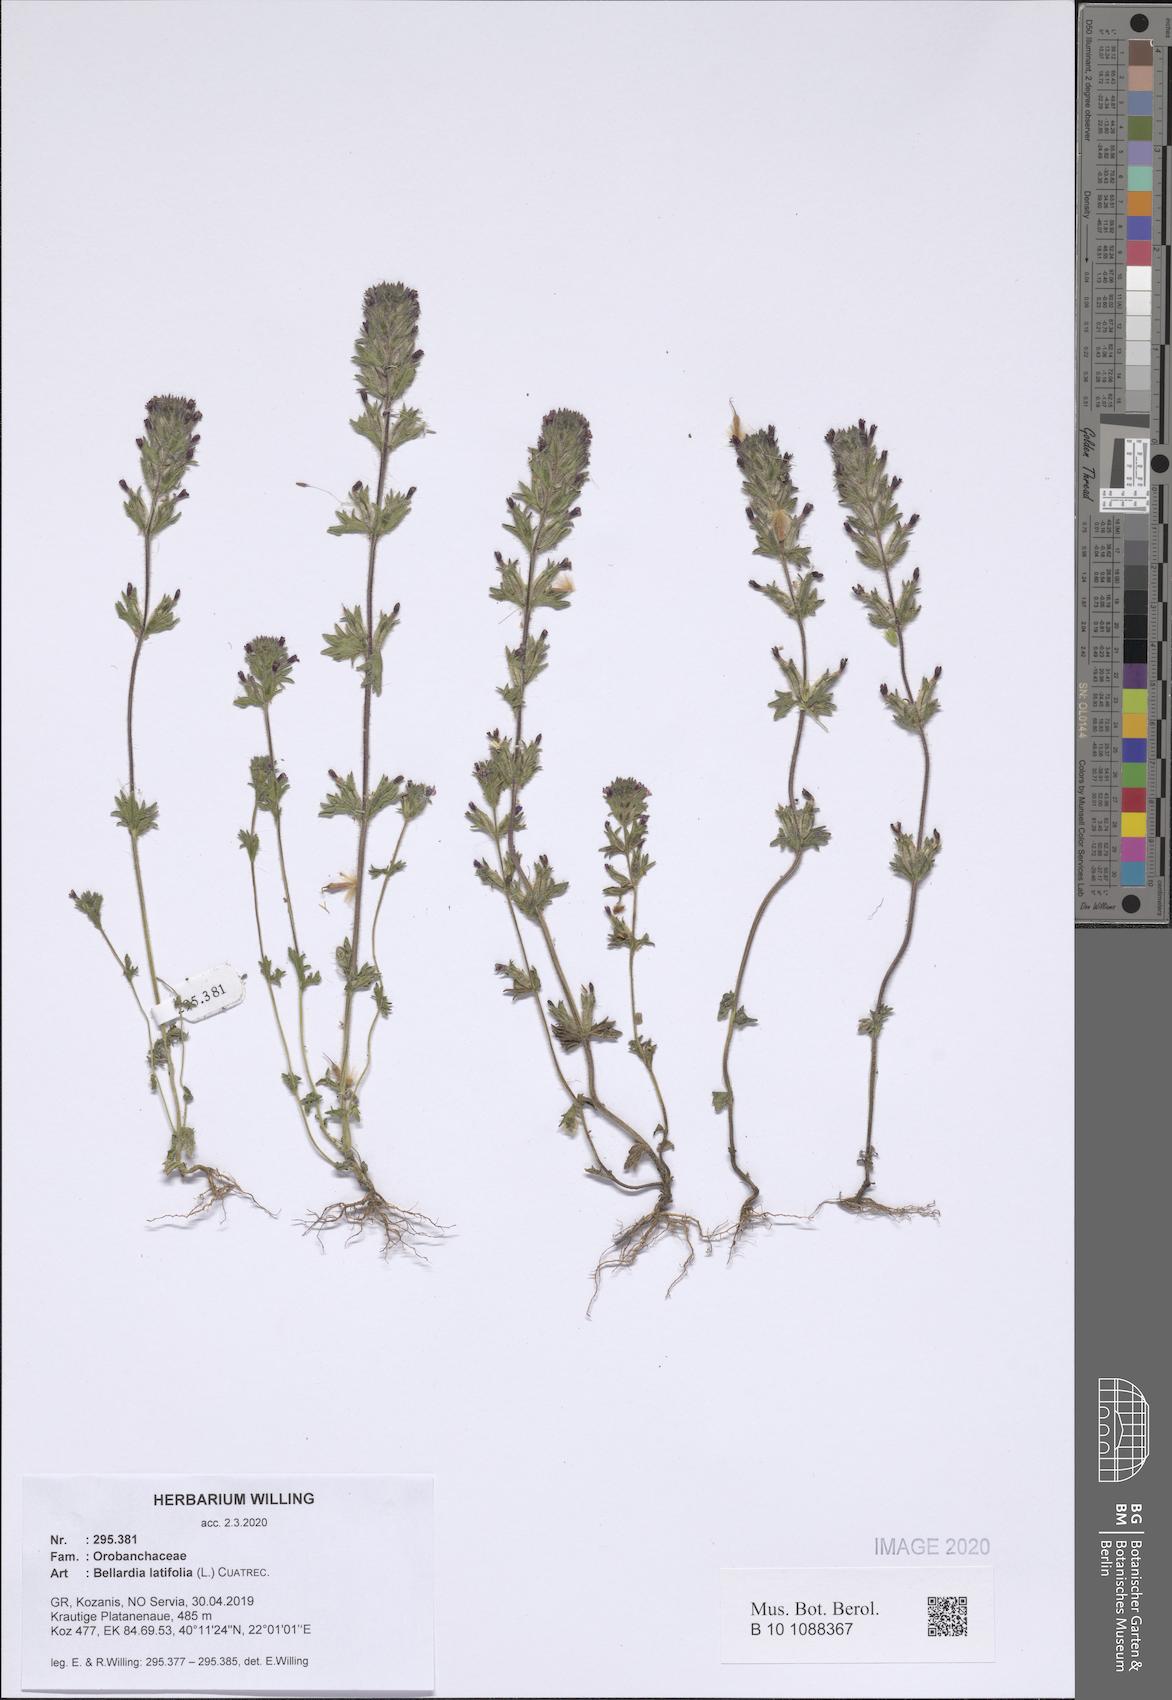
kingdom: Plantae
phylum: Tracheophyta
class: Magnoliopsida
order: Lamiales
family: Orobanchaceae
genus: Parentucellia
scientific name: Parentucellia latifolia
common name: Broadleaf glandweed
